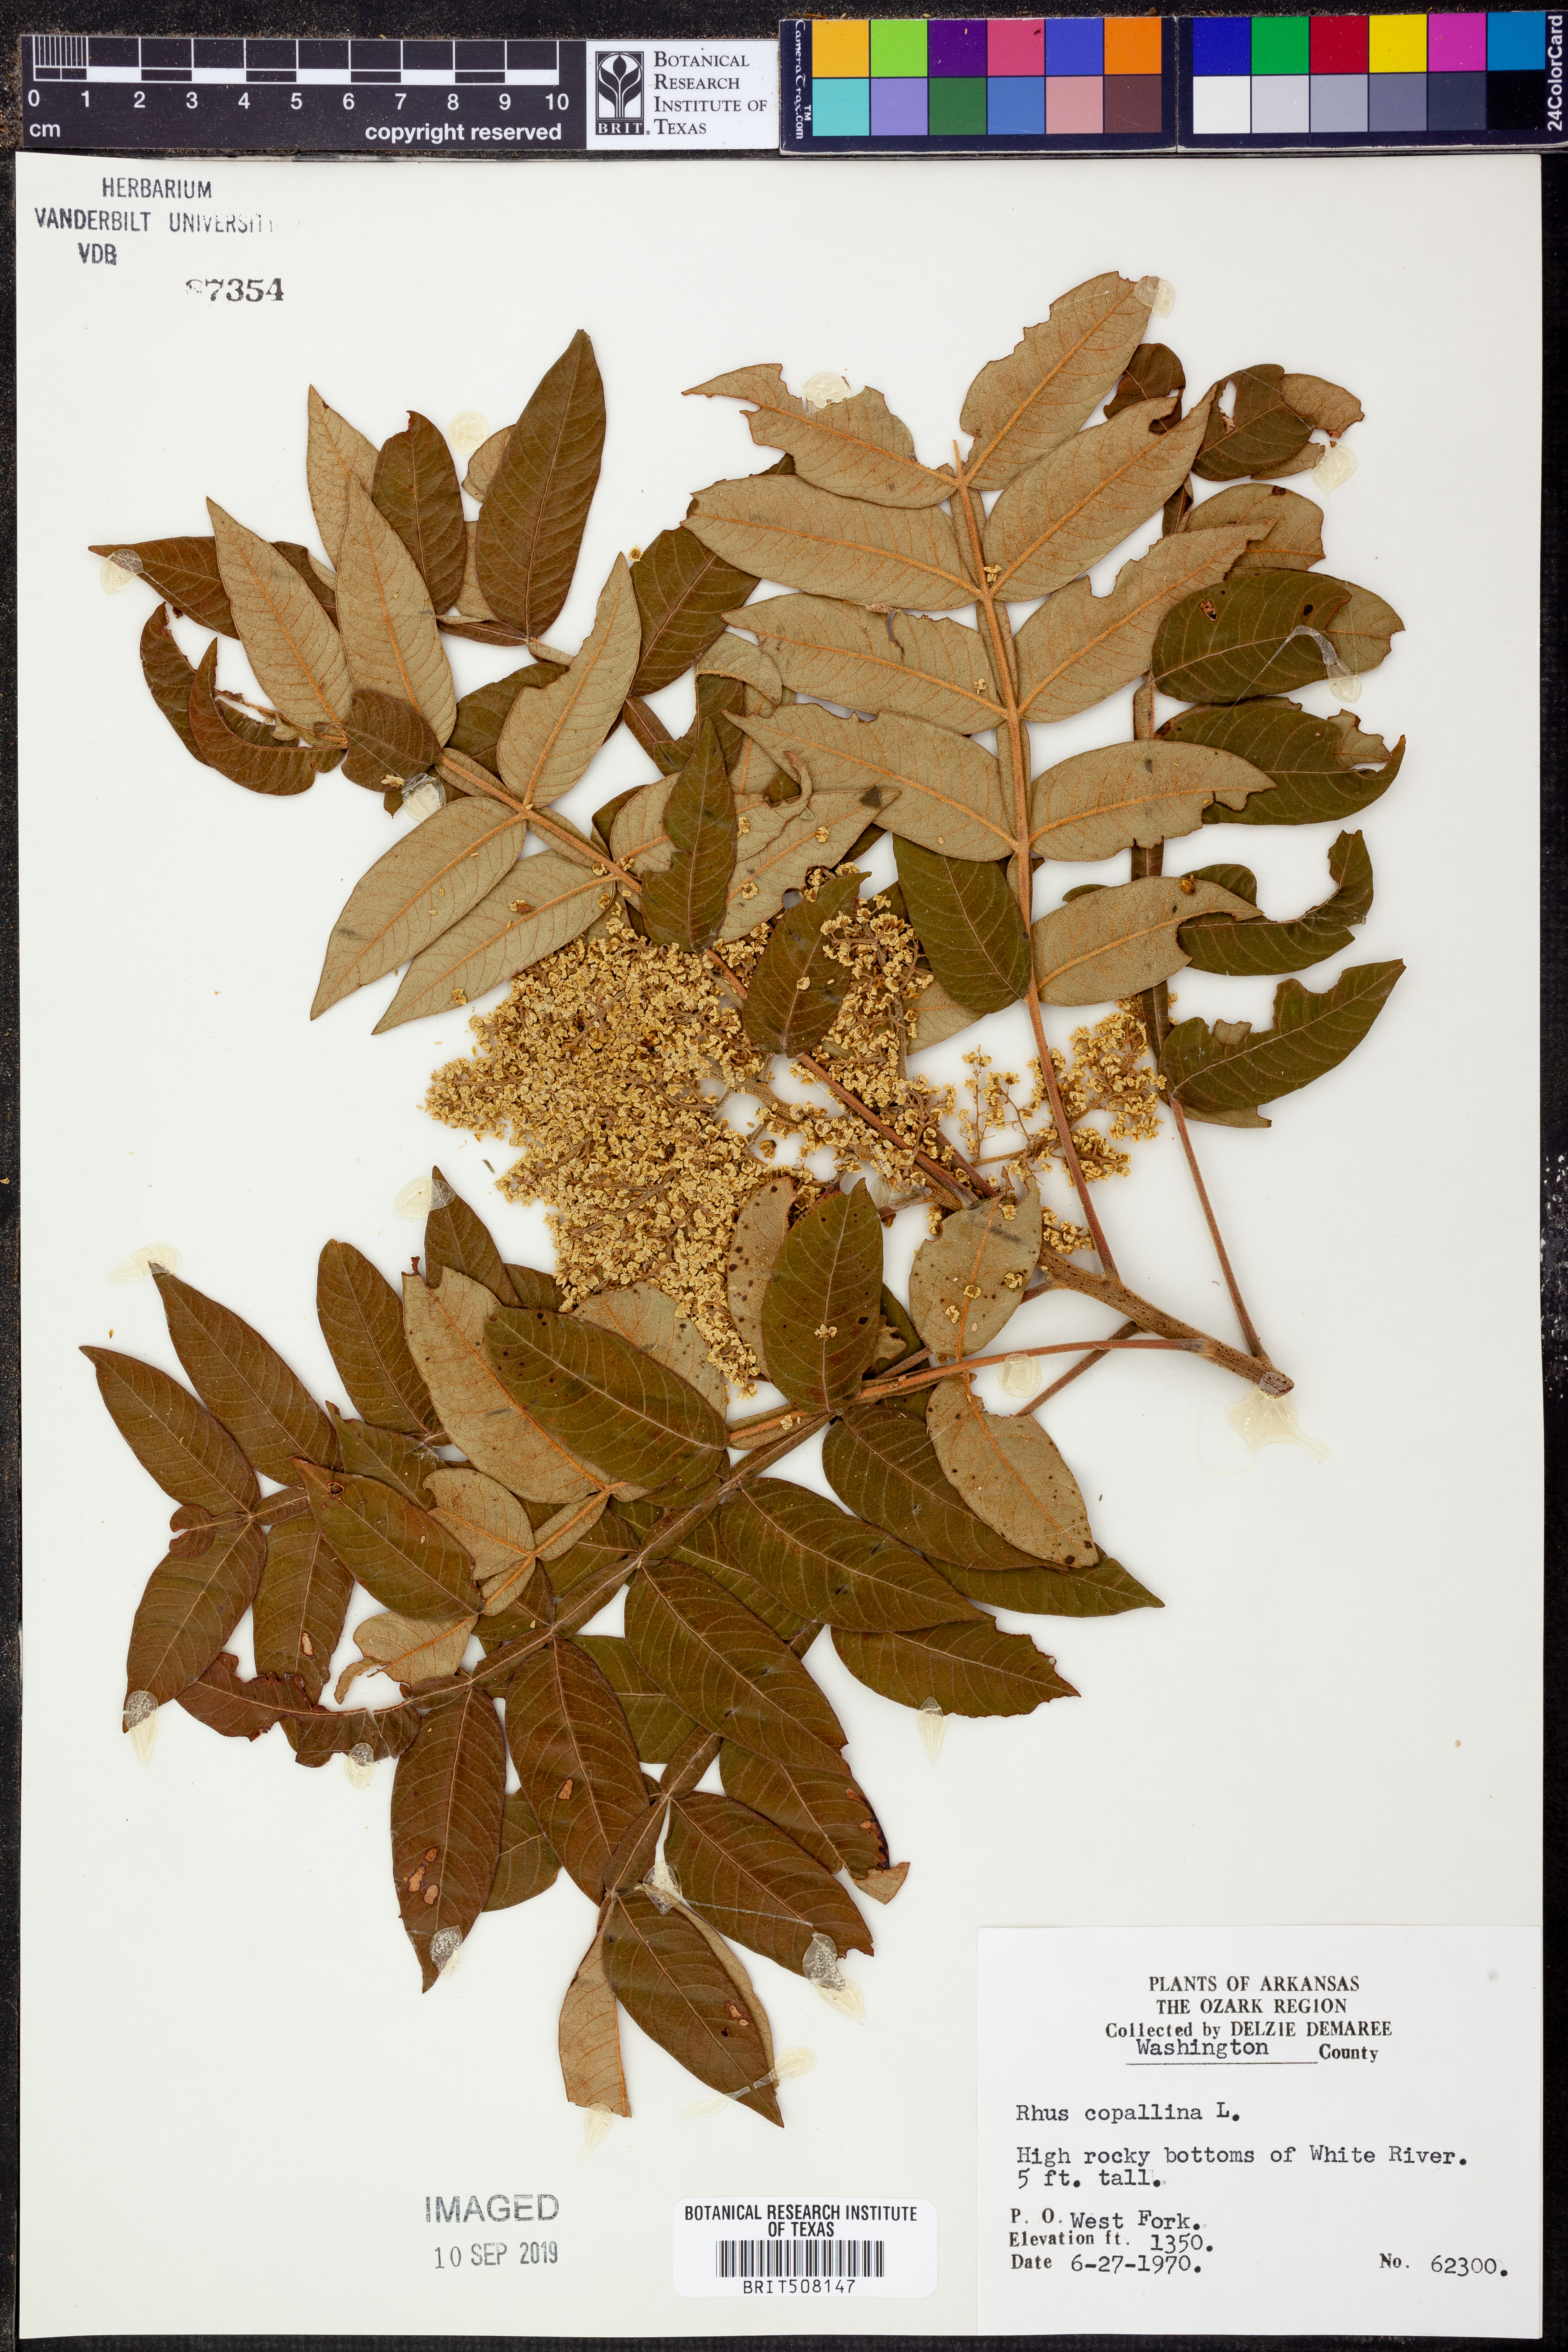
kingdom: Plantae
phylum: Tracheophyta
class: Magnoliopsida
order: Sapindales
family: Anacardiaceae
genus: Rhus
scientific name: Rhus copallina
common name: Shining sumac
